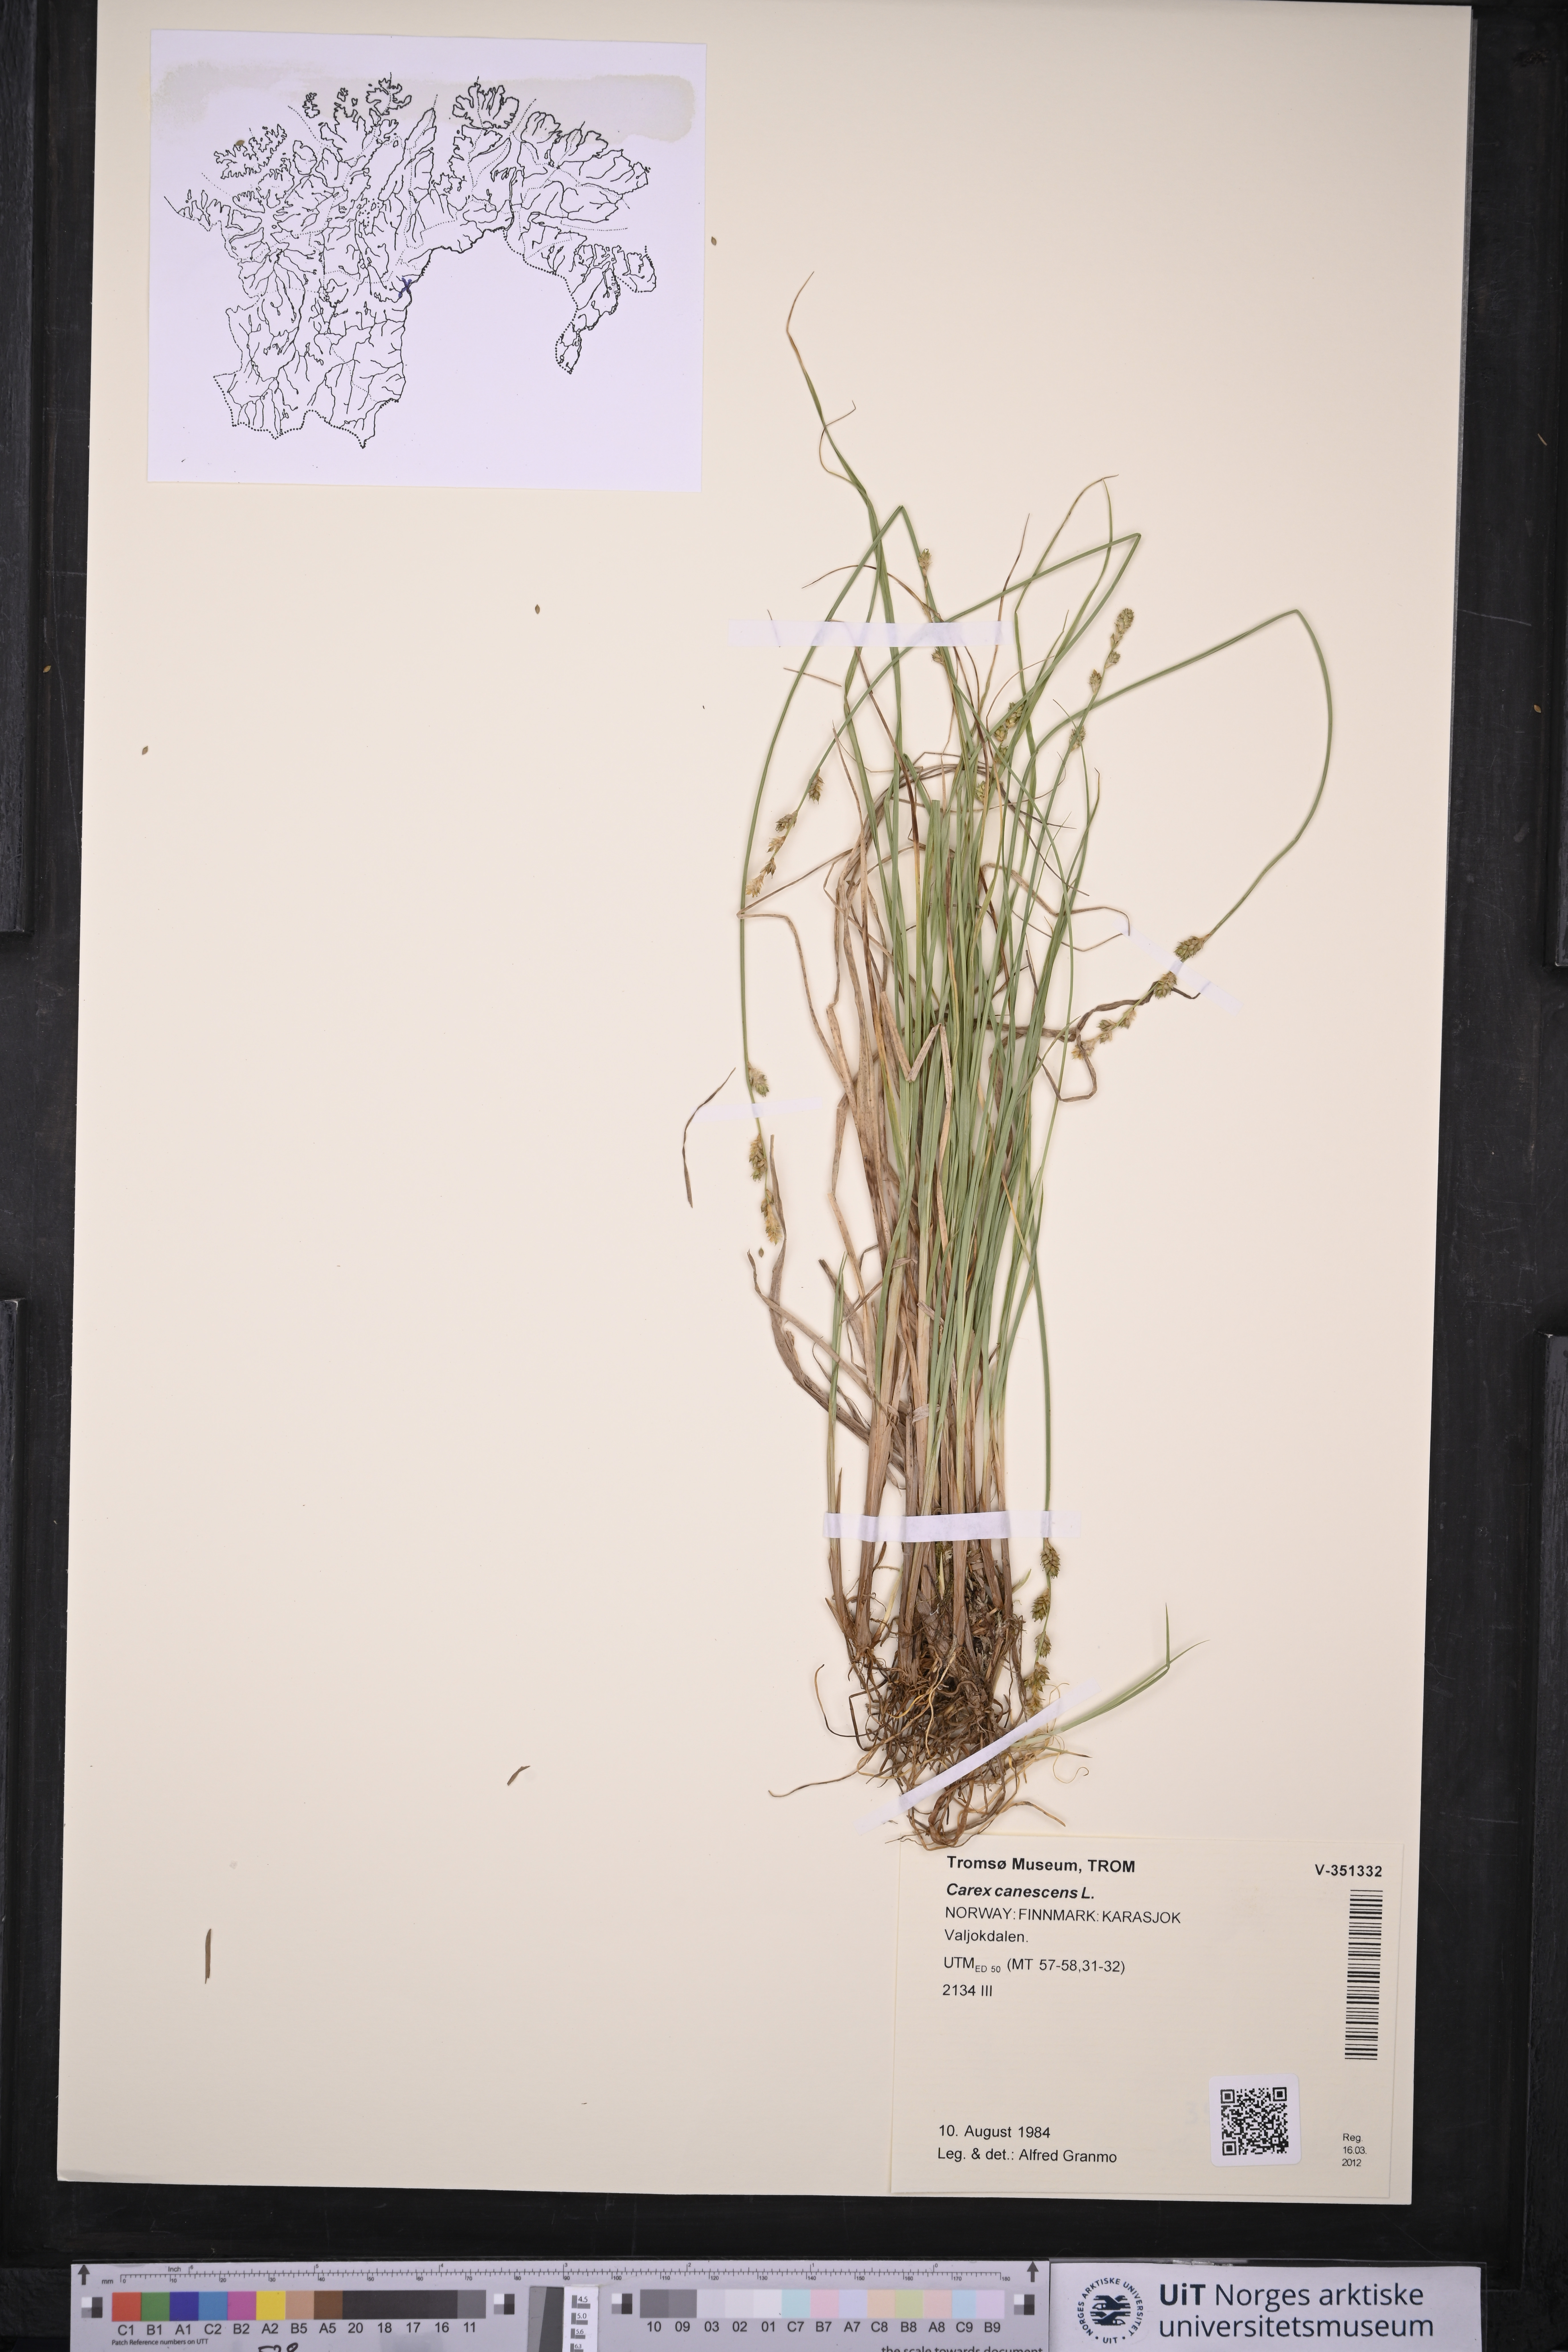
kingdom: Plantae
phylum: Tracheophyta
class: Liliopsida
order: Poales
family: Cyperaceae
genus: Carex
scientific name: Carex canescens
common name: White sedge
